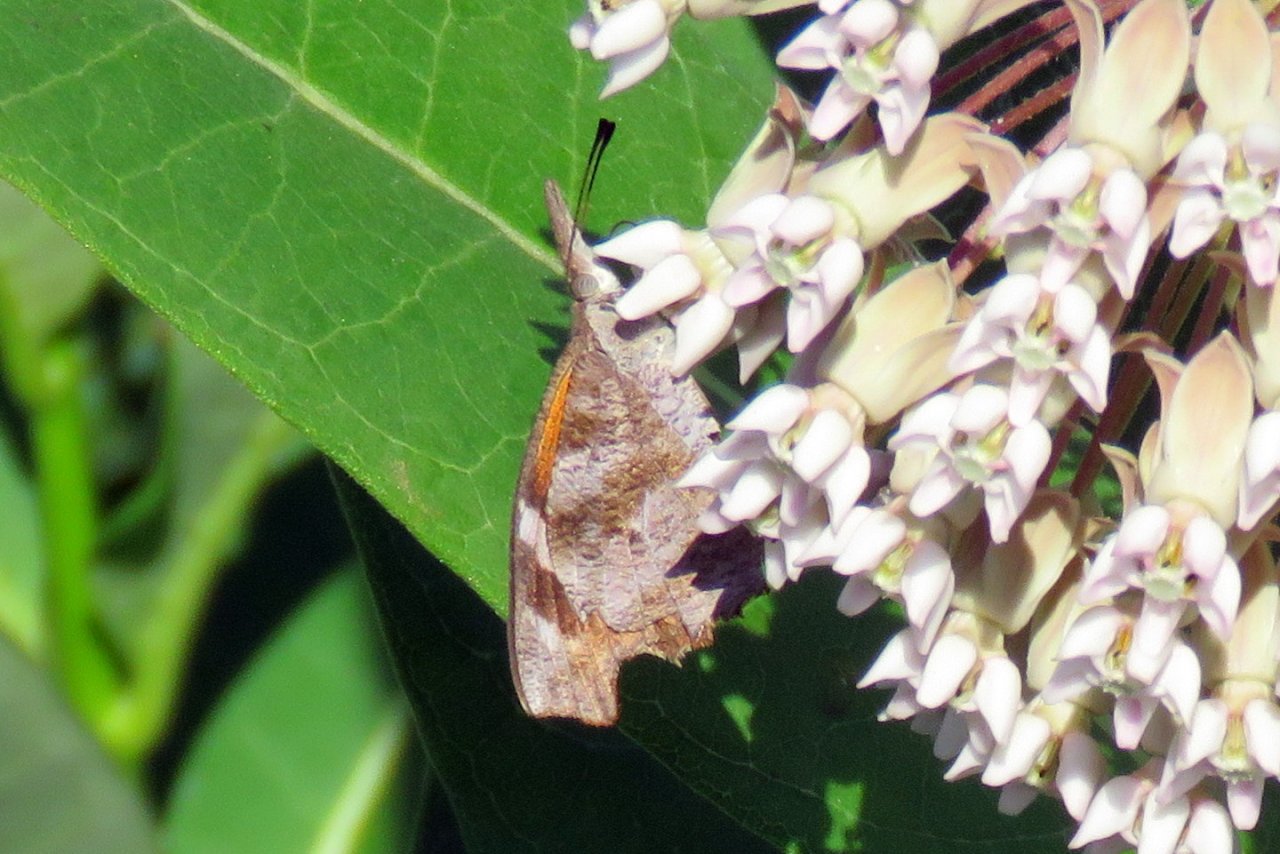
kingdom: Animalia
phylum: Arthropoda
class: Insecta
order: Lepidoptera
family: Nymphalidae
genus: Libytheana
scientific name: Libytheana carinenta
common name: American Snout
